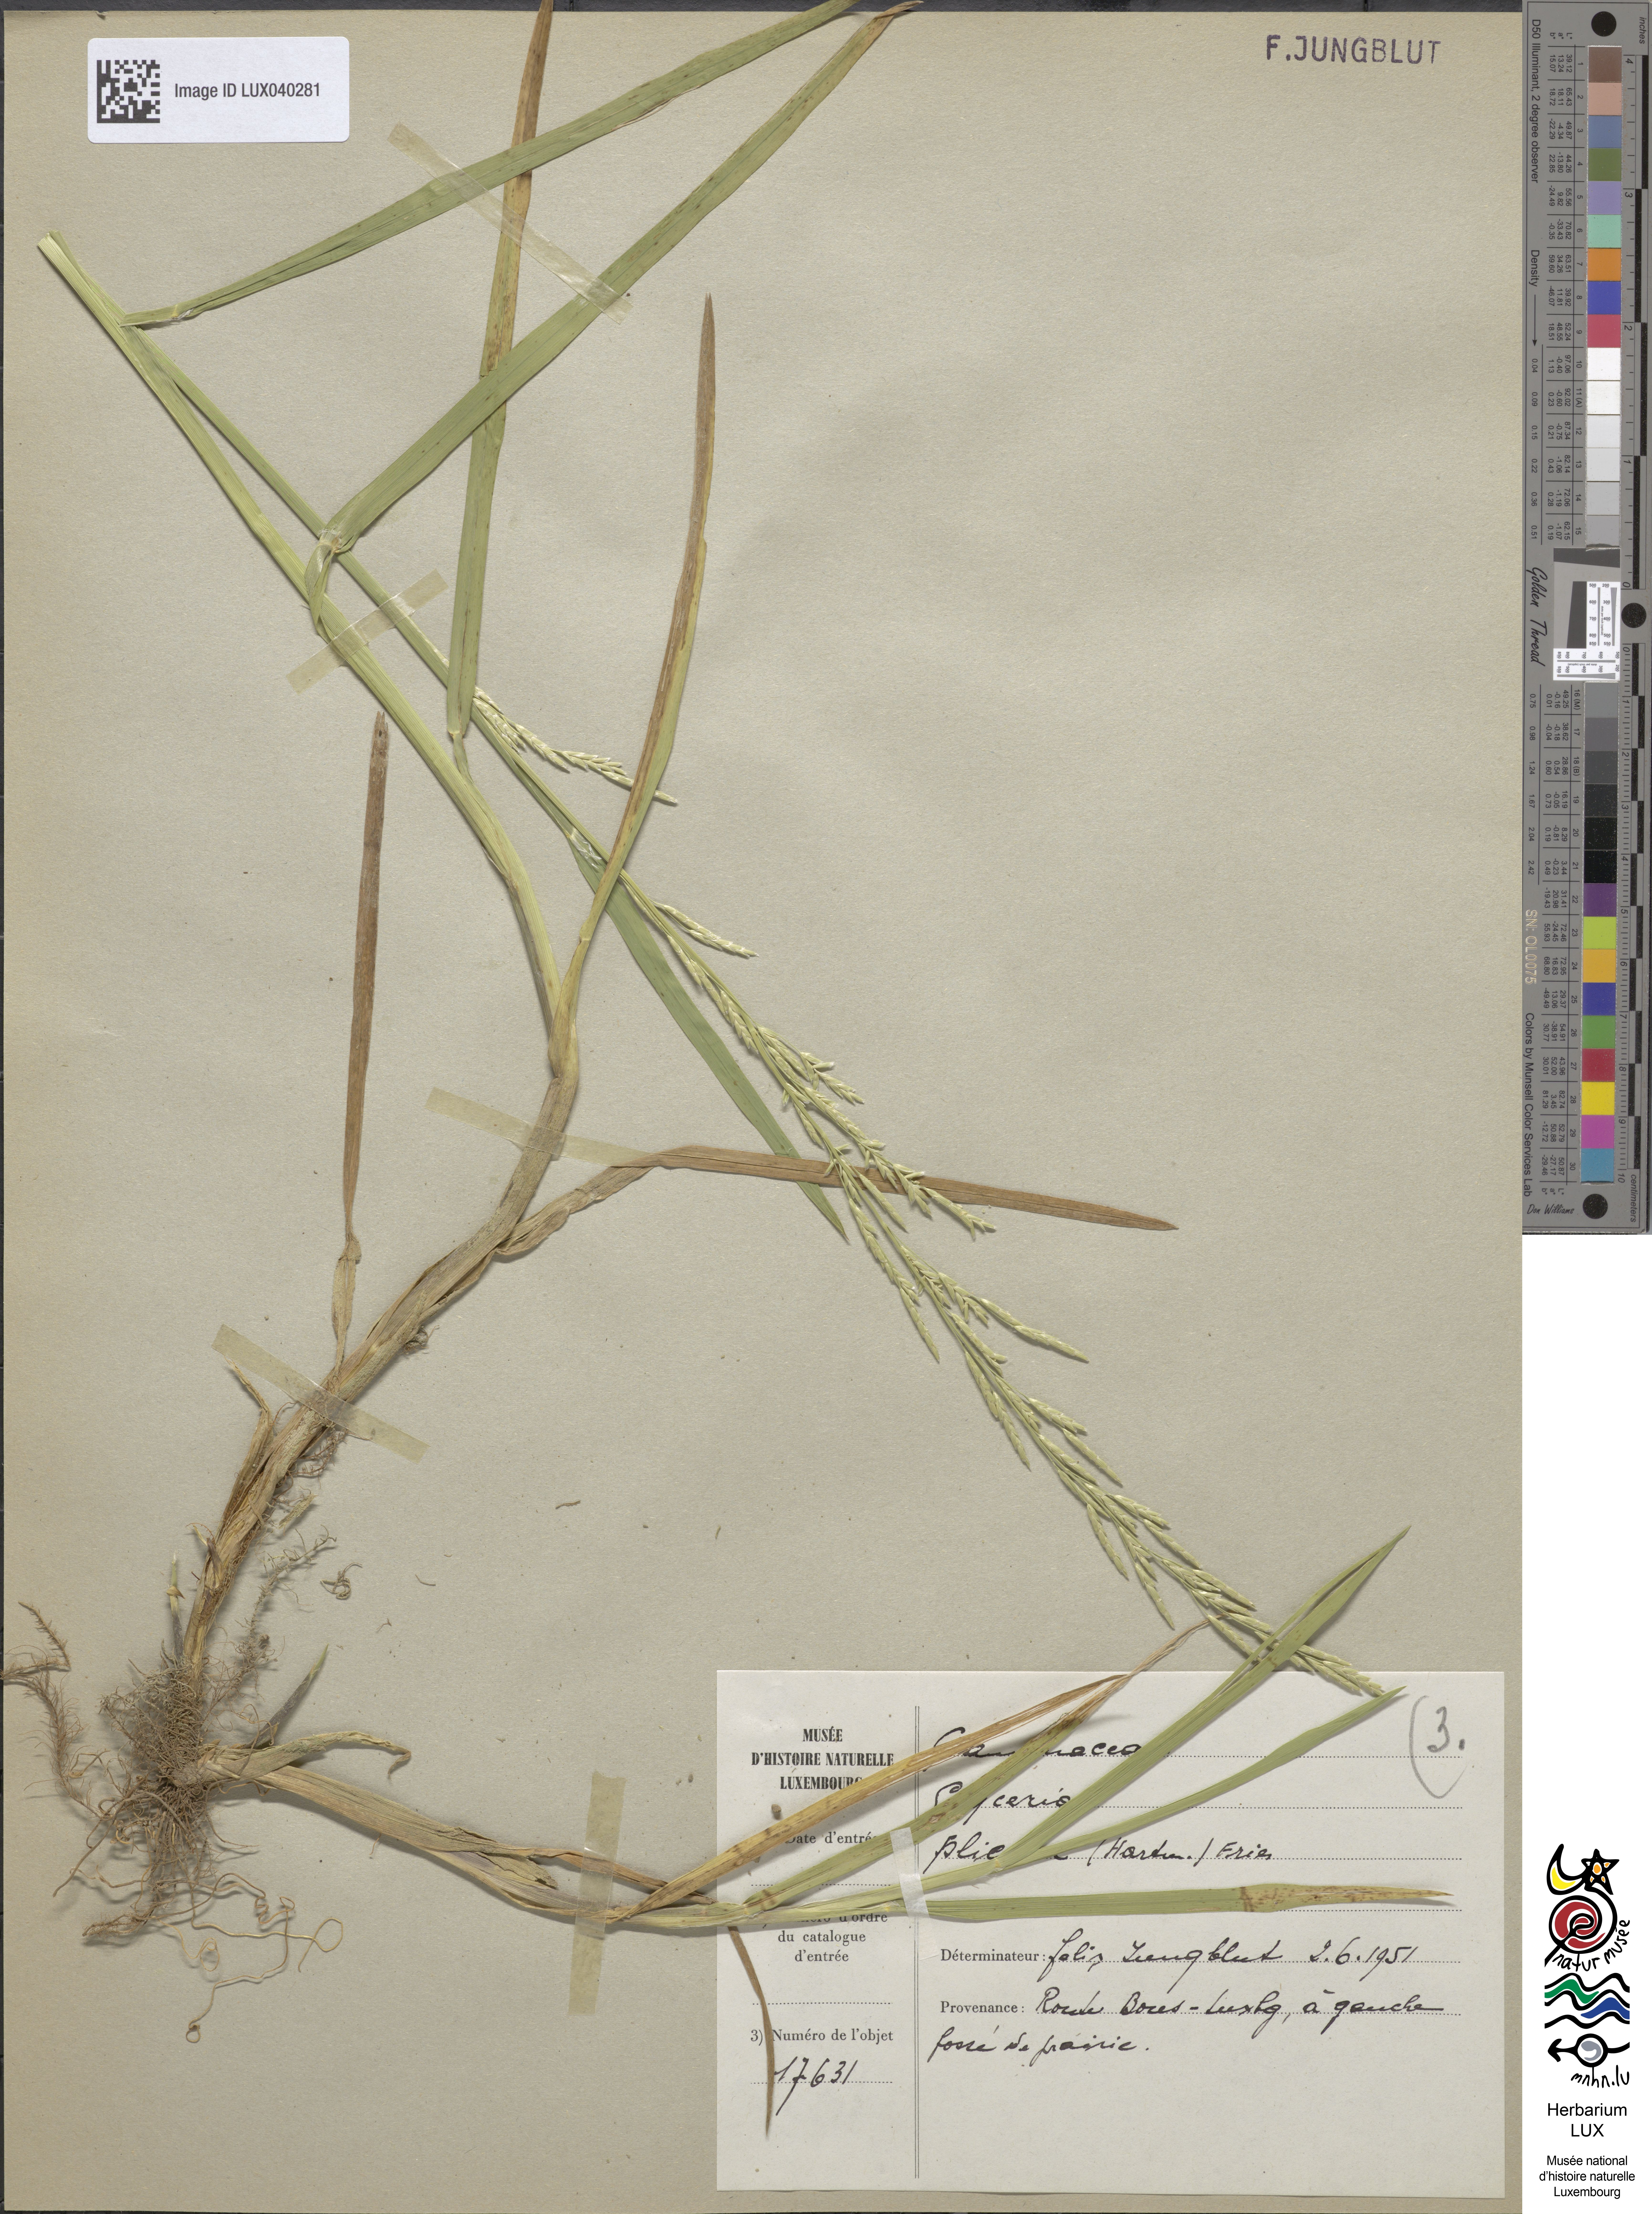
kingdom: Plantae
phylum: Tracheophyta
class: Liliopsida
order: Poales
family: Poaceae
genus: Glyceria
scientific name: Glyceria notata
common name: Plicate sweet-grass
